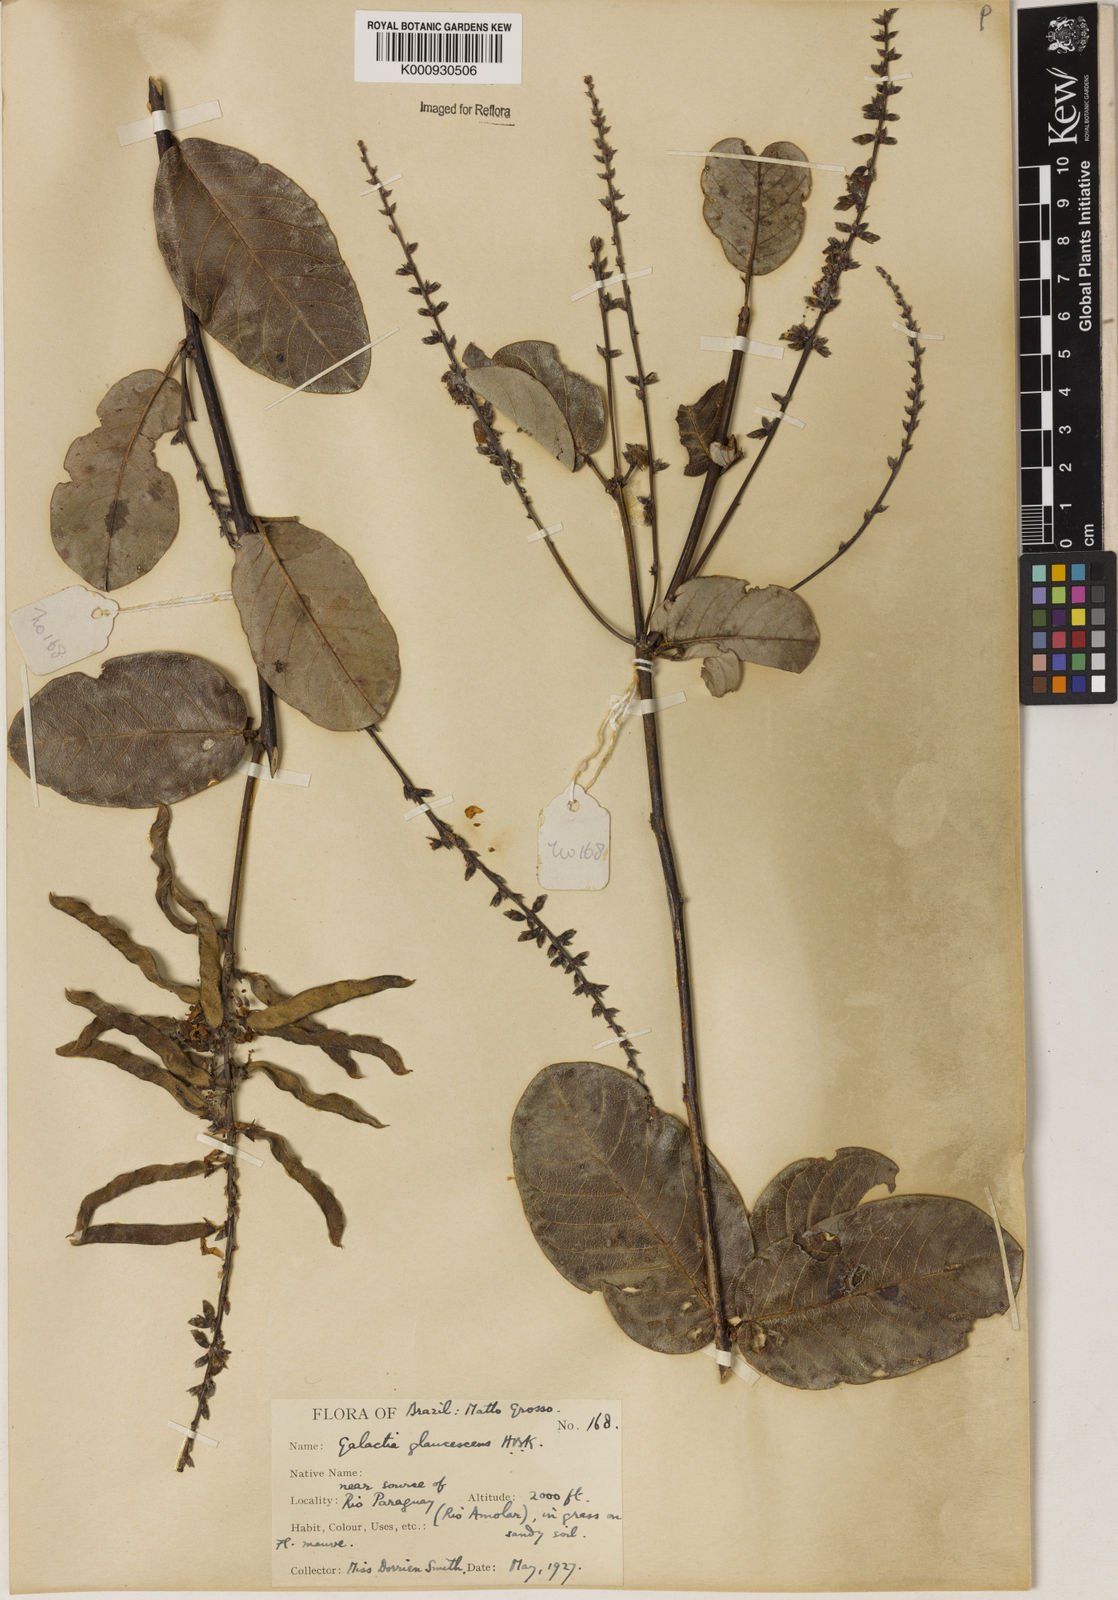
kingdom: Plantae
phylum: Tracheophyta
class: Magnoliopsida
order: Fabales
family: Fabaceae
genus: Galactia
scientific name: Galactia glaucescens
